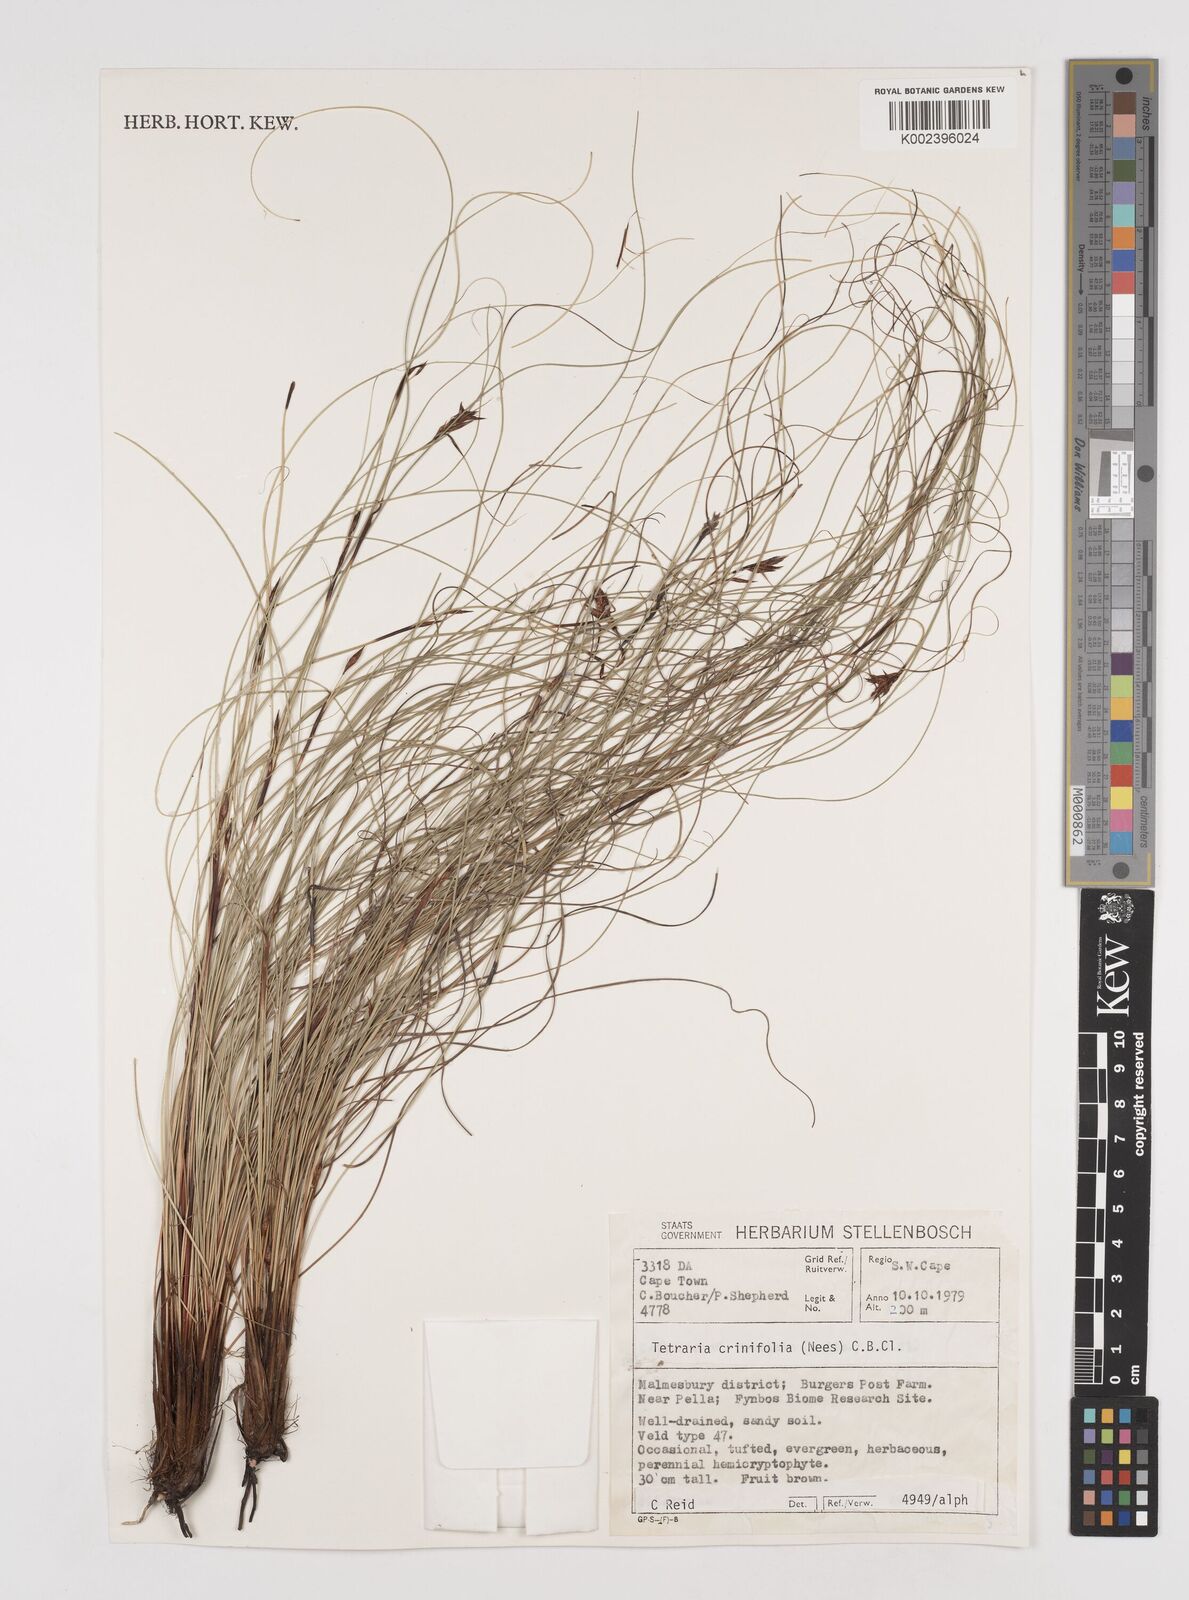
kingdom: Plantae
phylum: Tracheophyta
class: Liliopsida
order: Poales
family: Cyperaceae
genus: Tetraria
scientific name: Tetraria crinifolia
